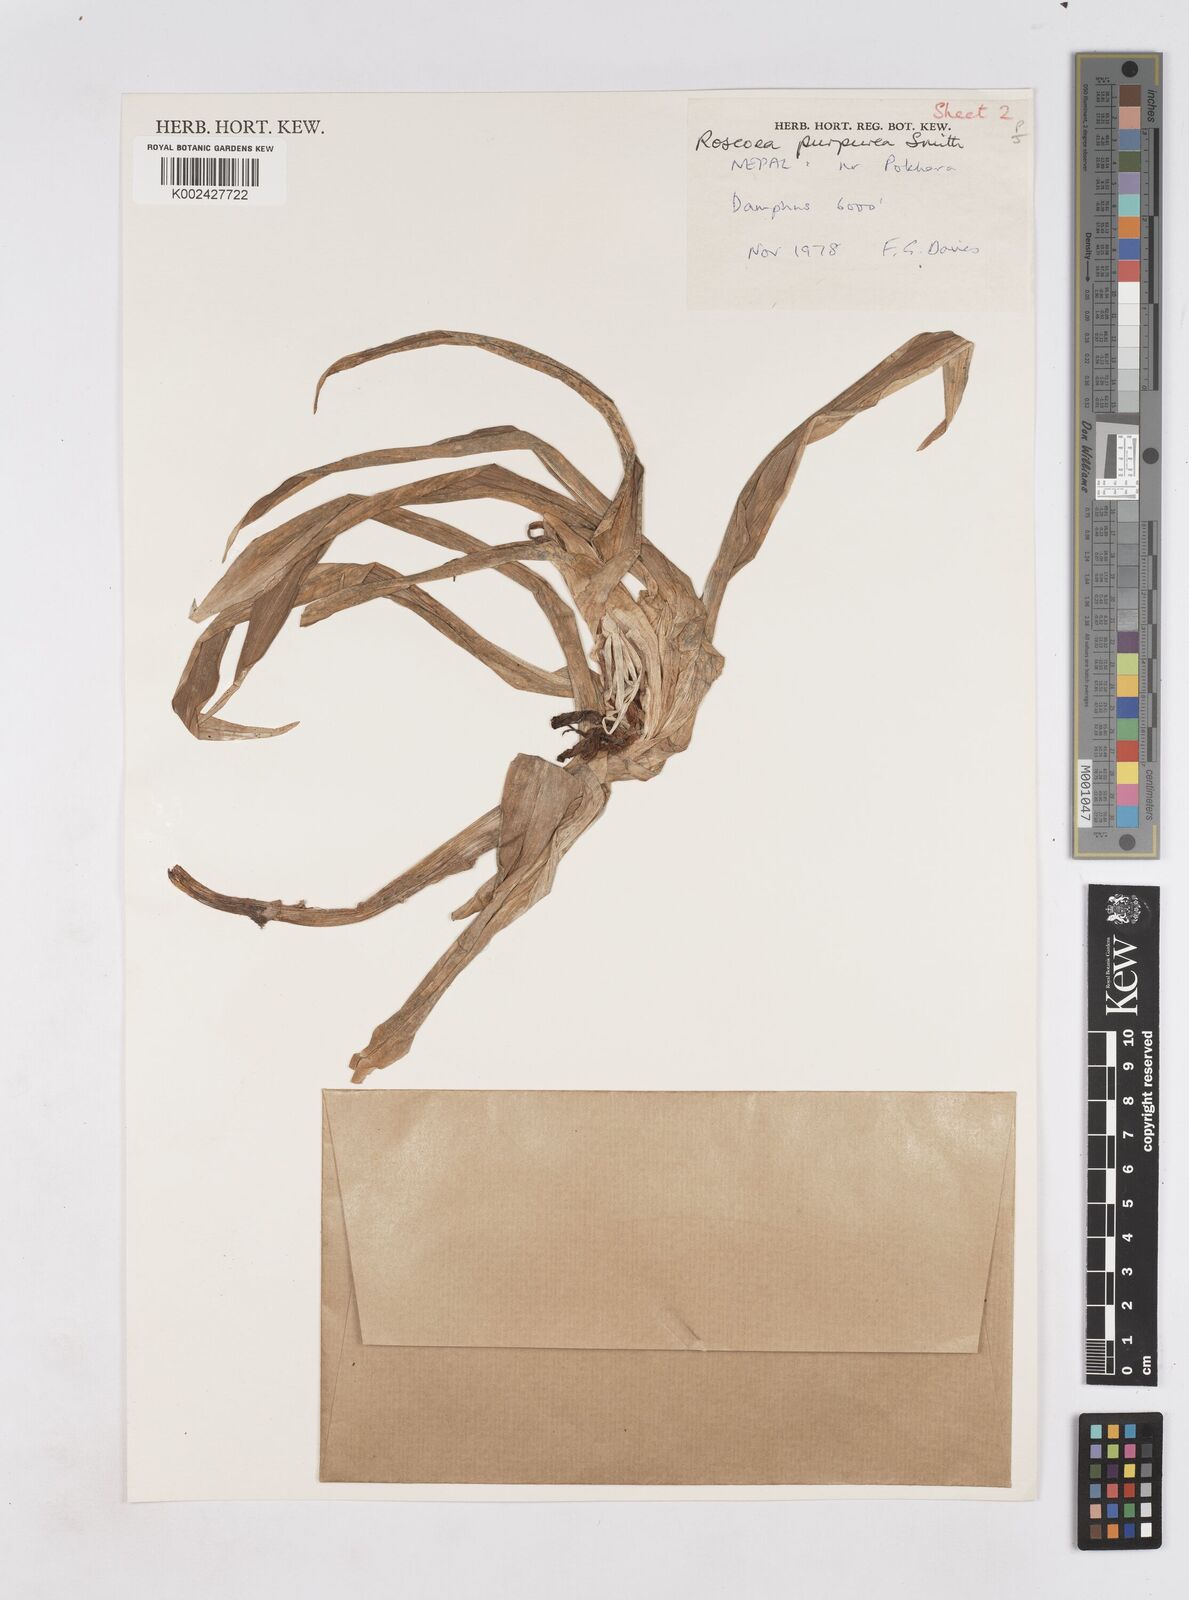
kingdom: Plantae
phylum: Tracheophyta
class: Liliopsida
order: Zingiberales
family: Zingiberaceae
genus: Roscoea
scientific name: Roscoea purpurea
